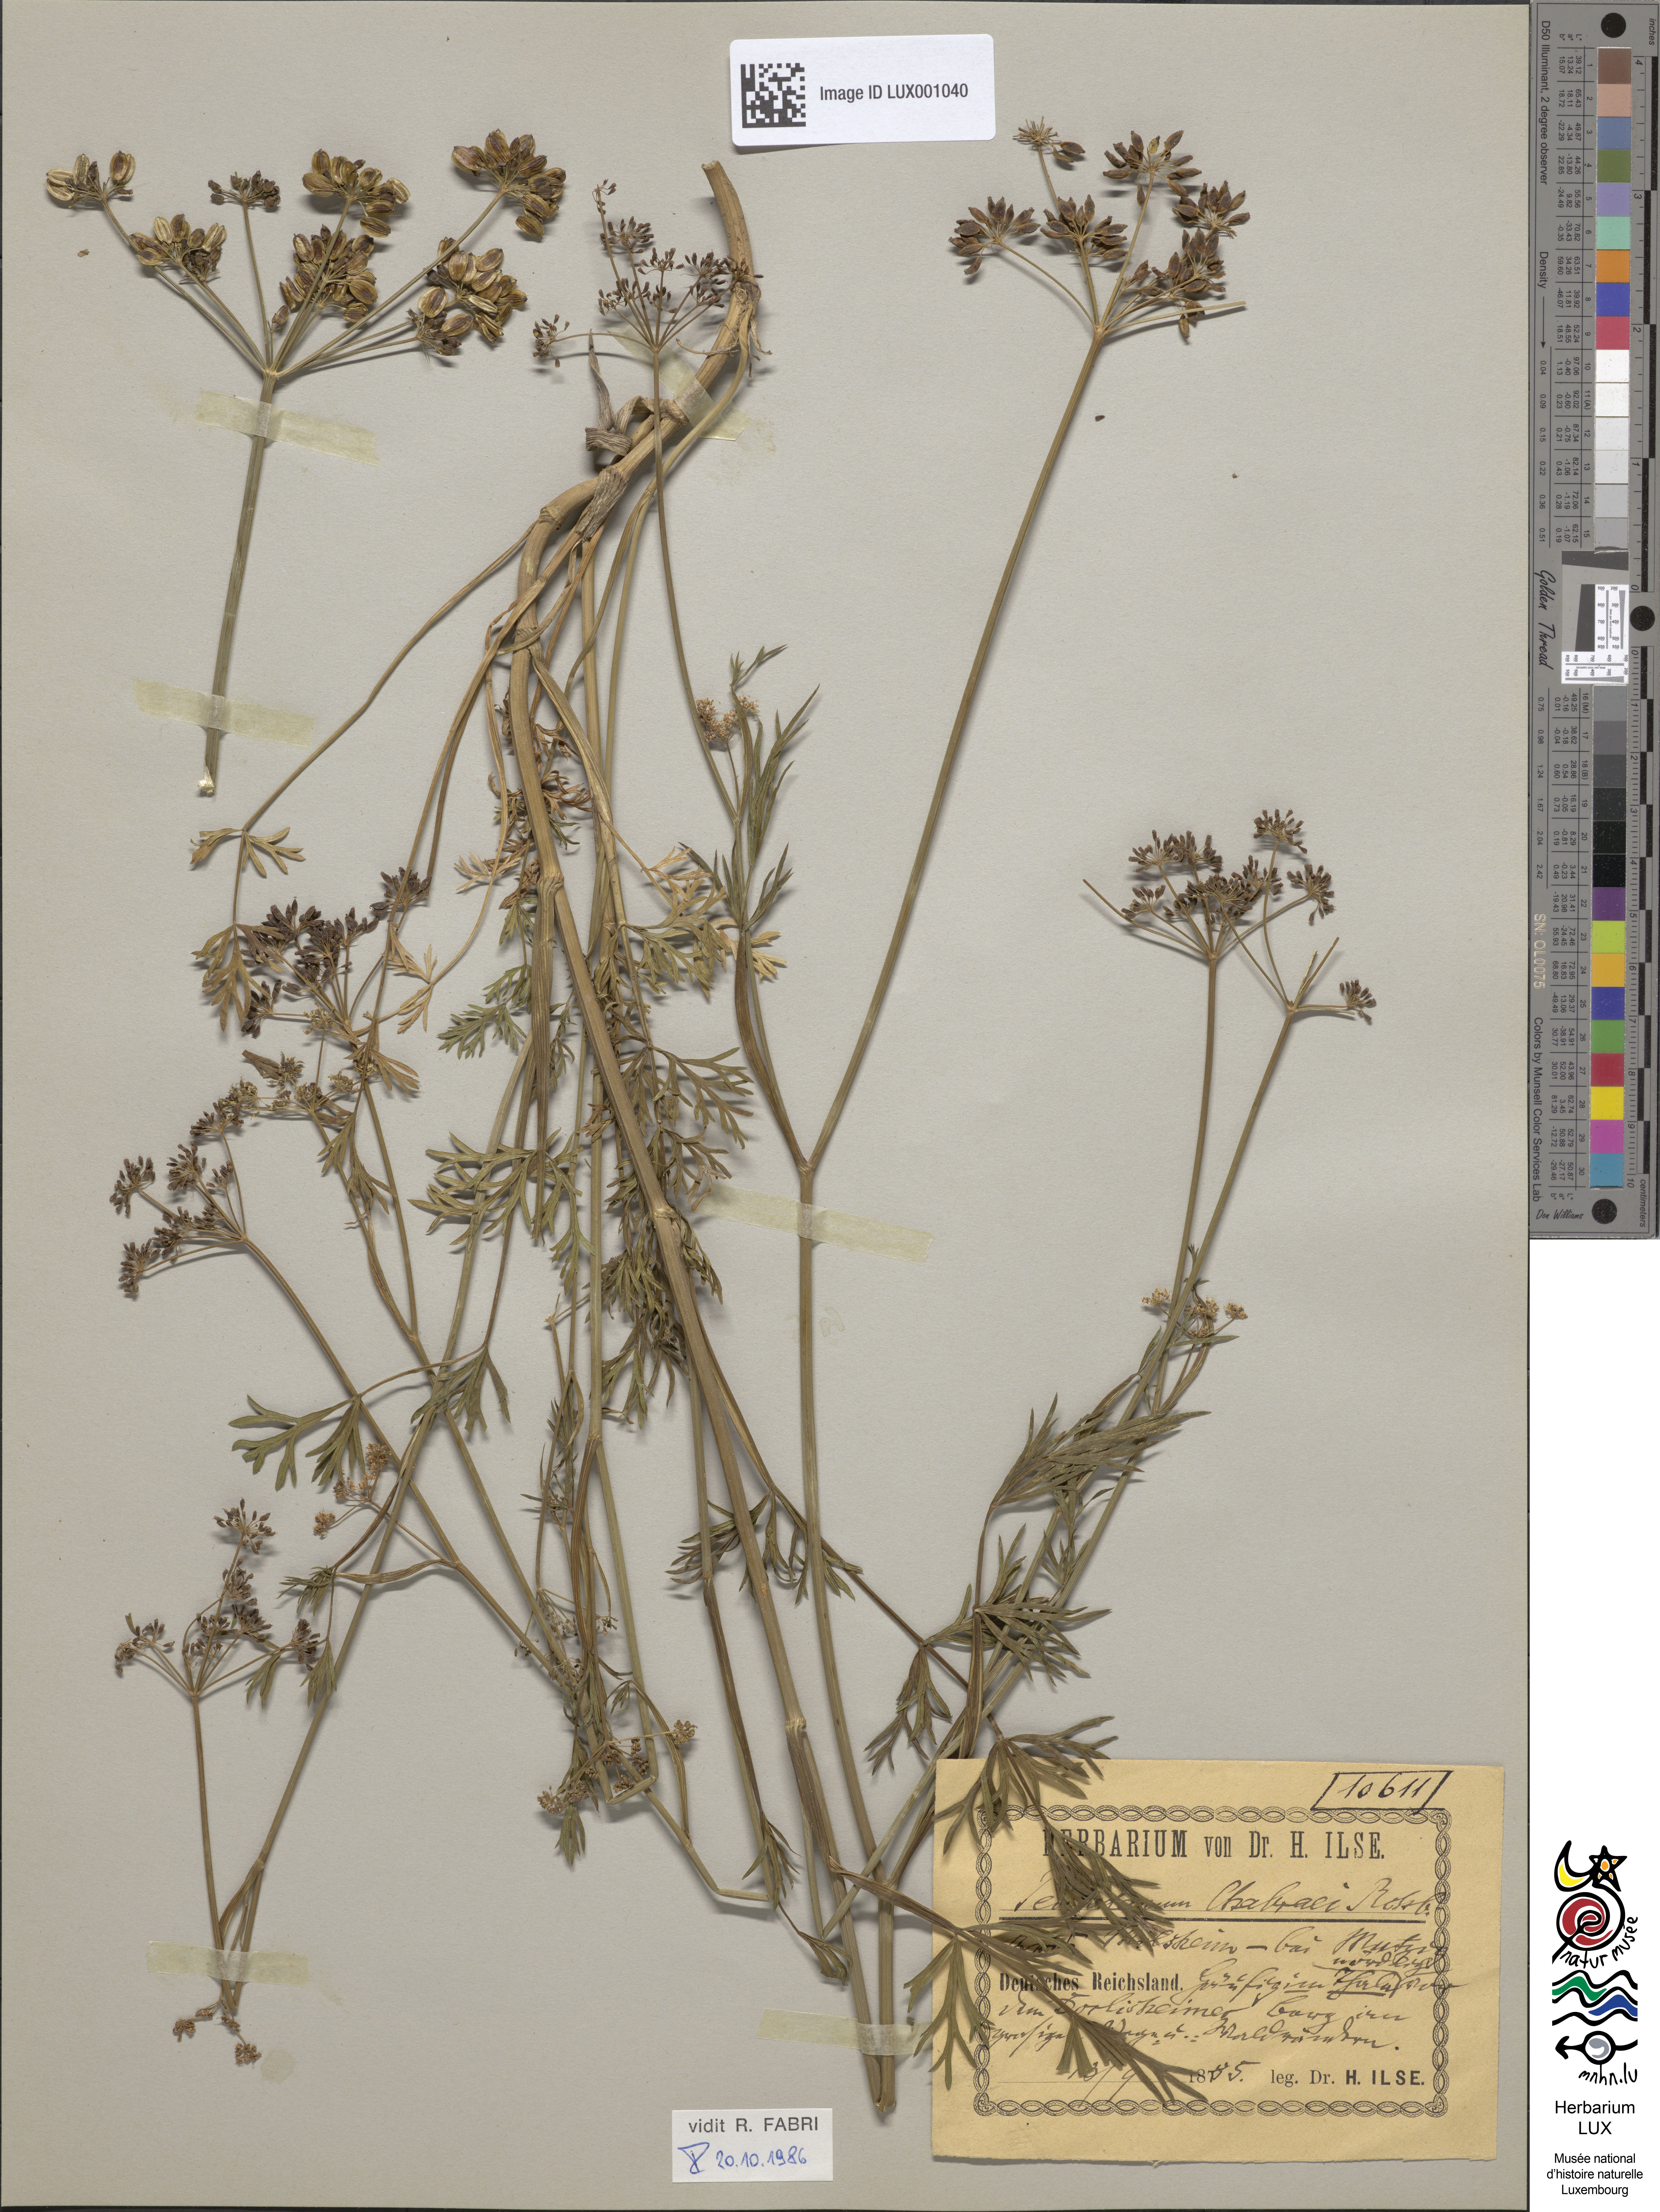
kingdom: Plantae
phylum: Tracheophyta
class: Magnoliopsida
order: Apiales
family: Apiaceae
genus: Dichoropetalum
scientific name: Dichoropetalum carvifolia
